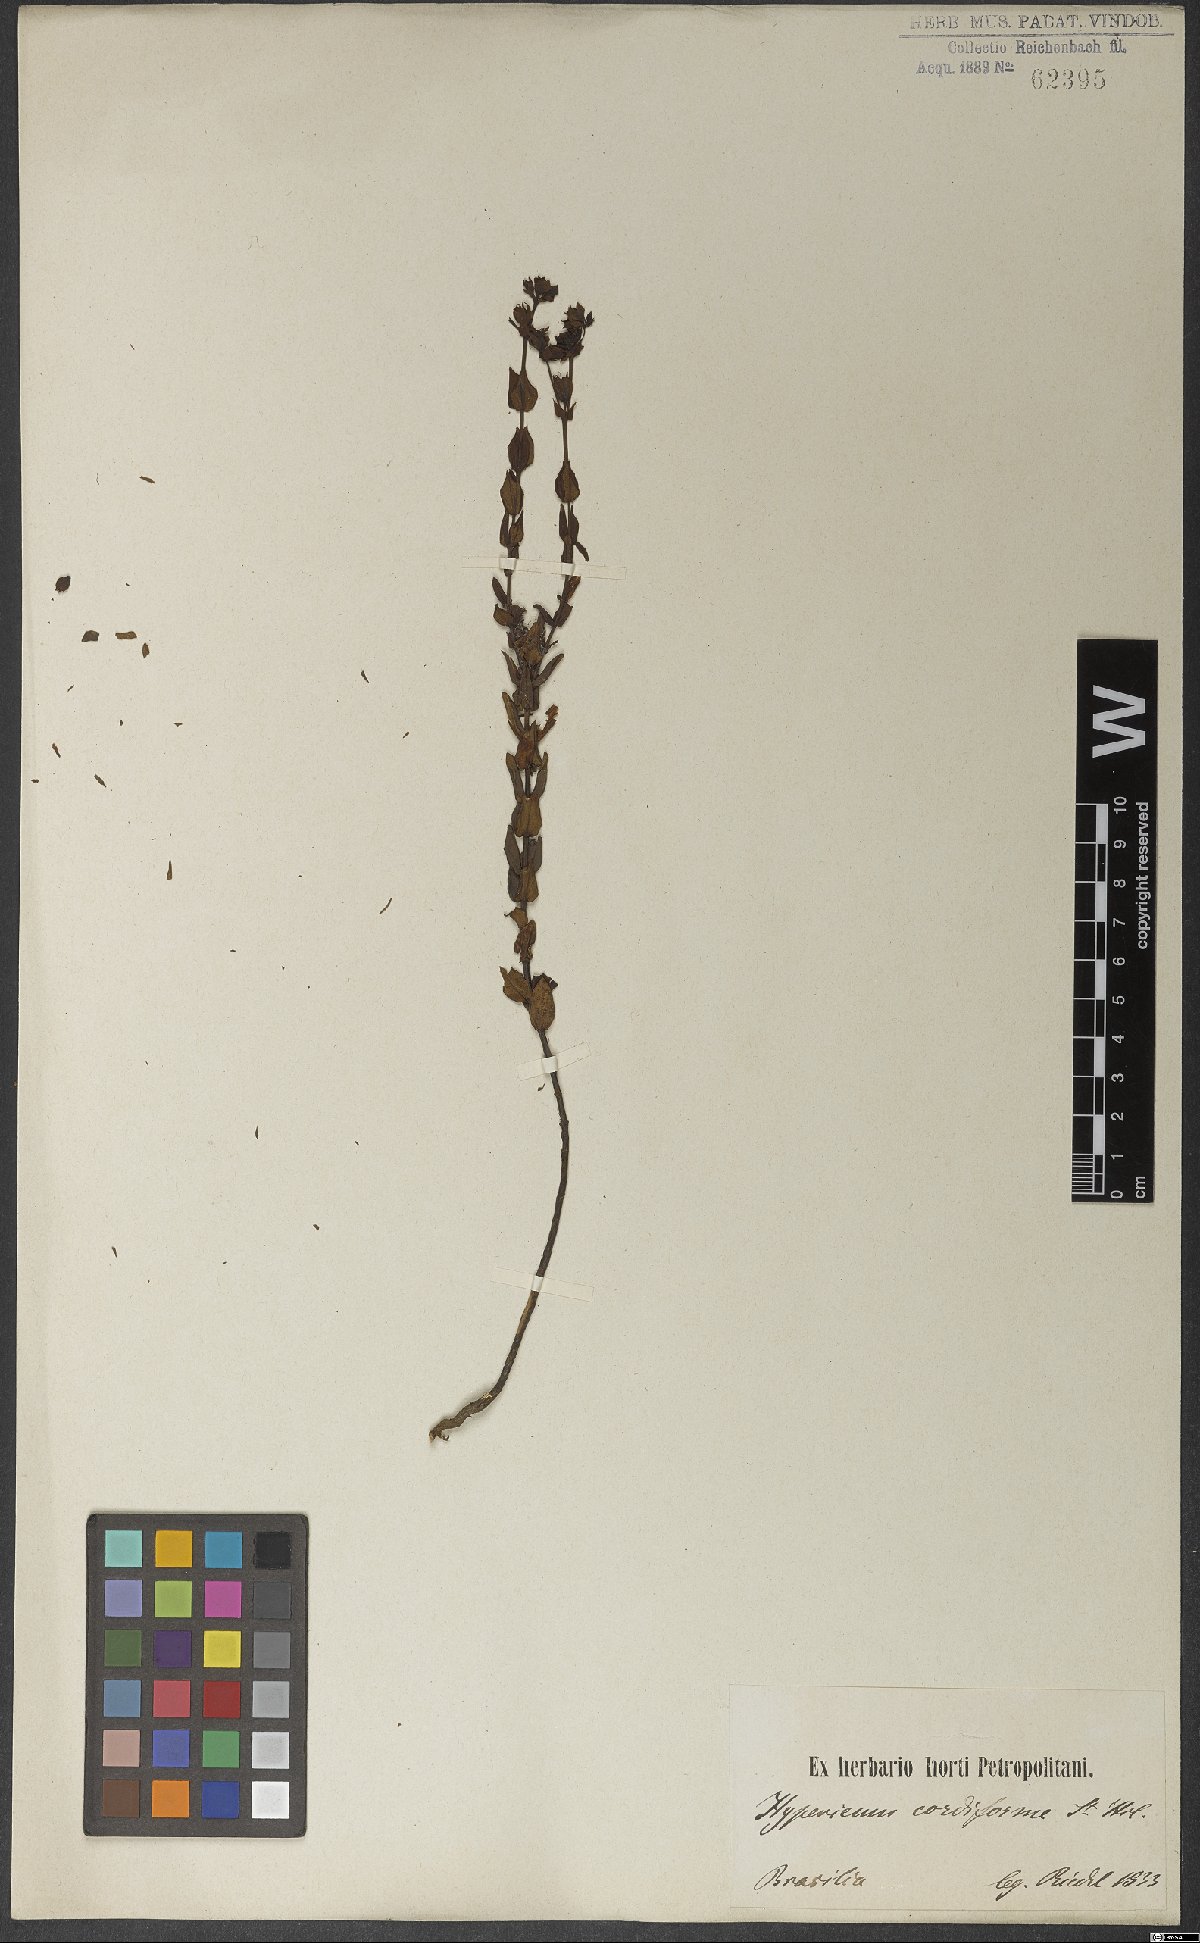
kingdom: Plantae
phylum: Tracheophyta
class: Magnoliopsida
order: Malpighiales
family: Hypericaceae
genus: Hypericum
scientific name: Hypericum cordiforme
